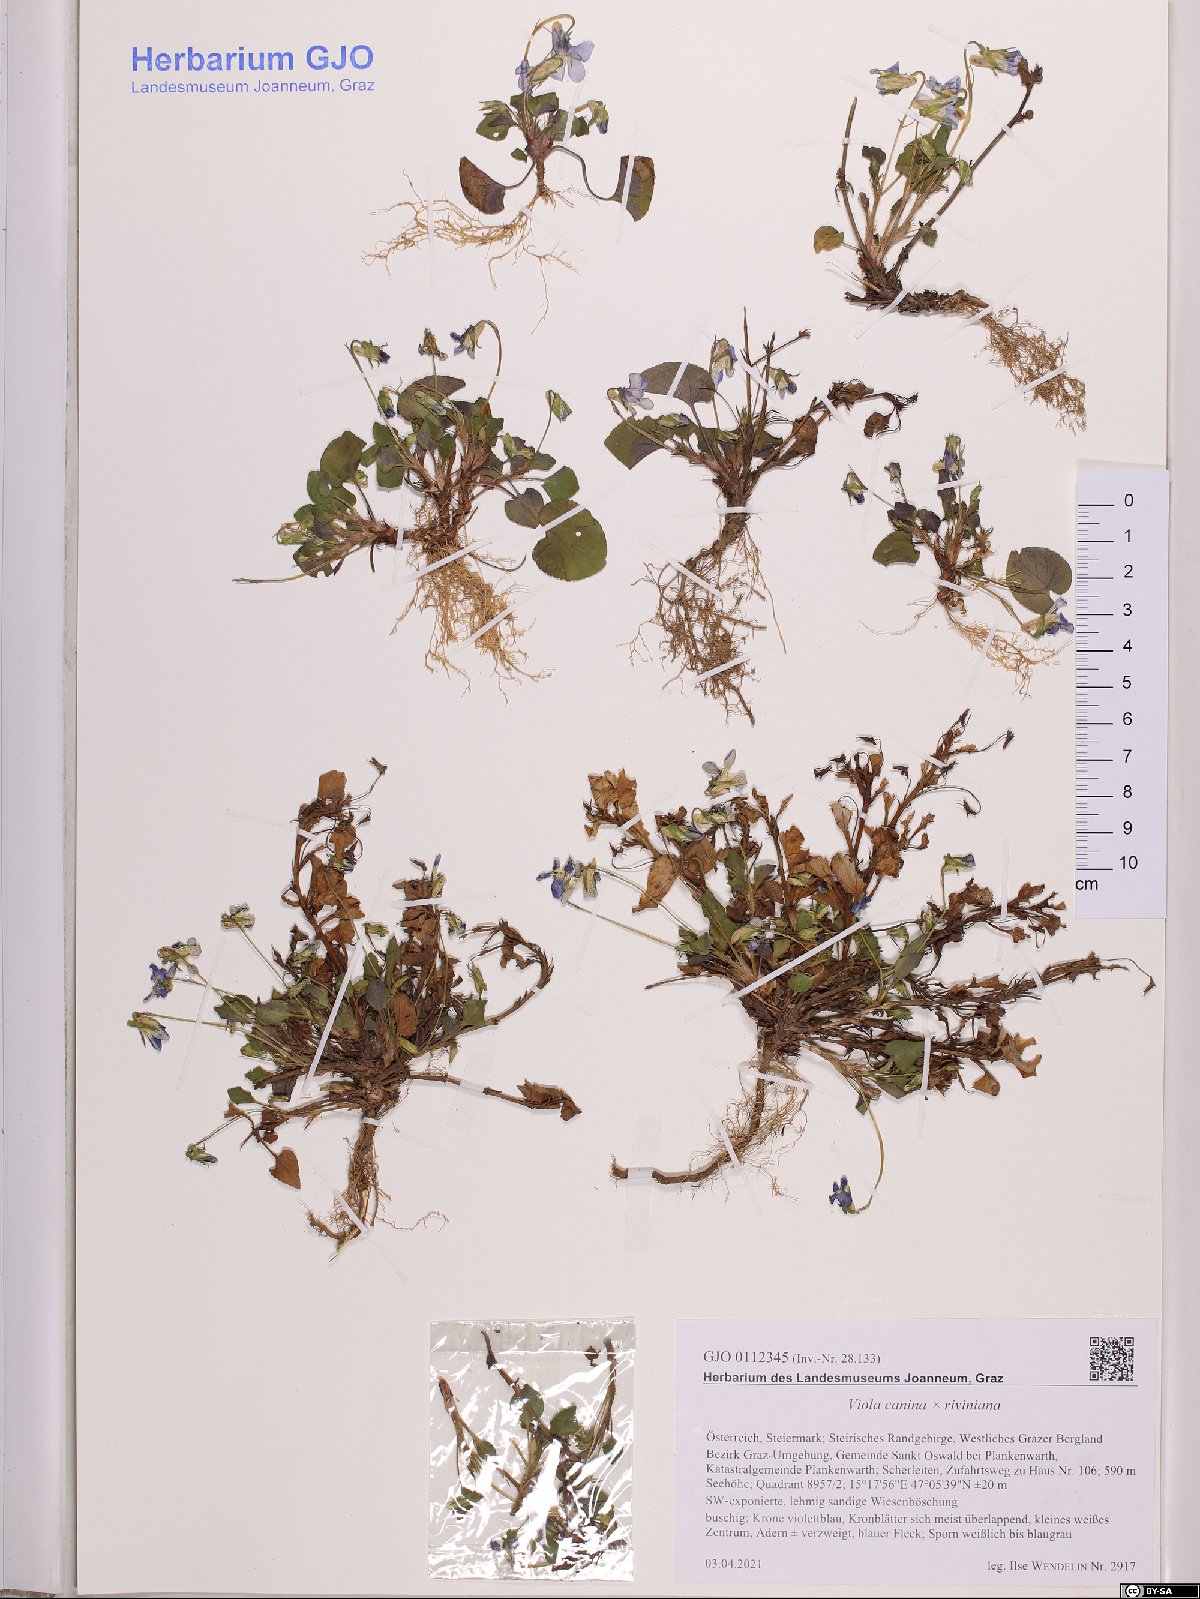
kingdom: Plantae
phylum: Tracheophyta
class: Magnoliopsida
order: Malpighiales
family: Violaceae
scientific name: Violaceae
